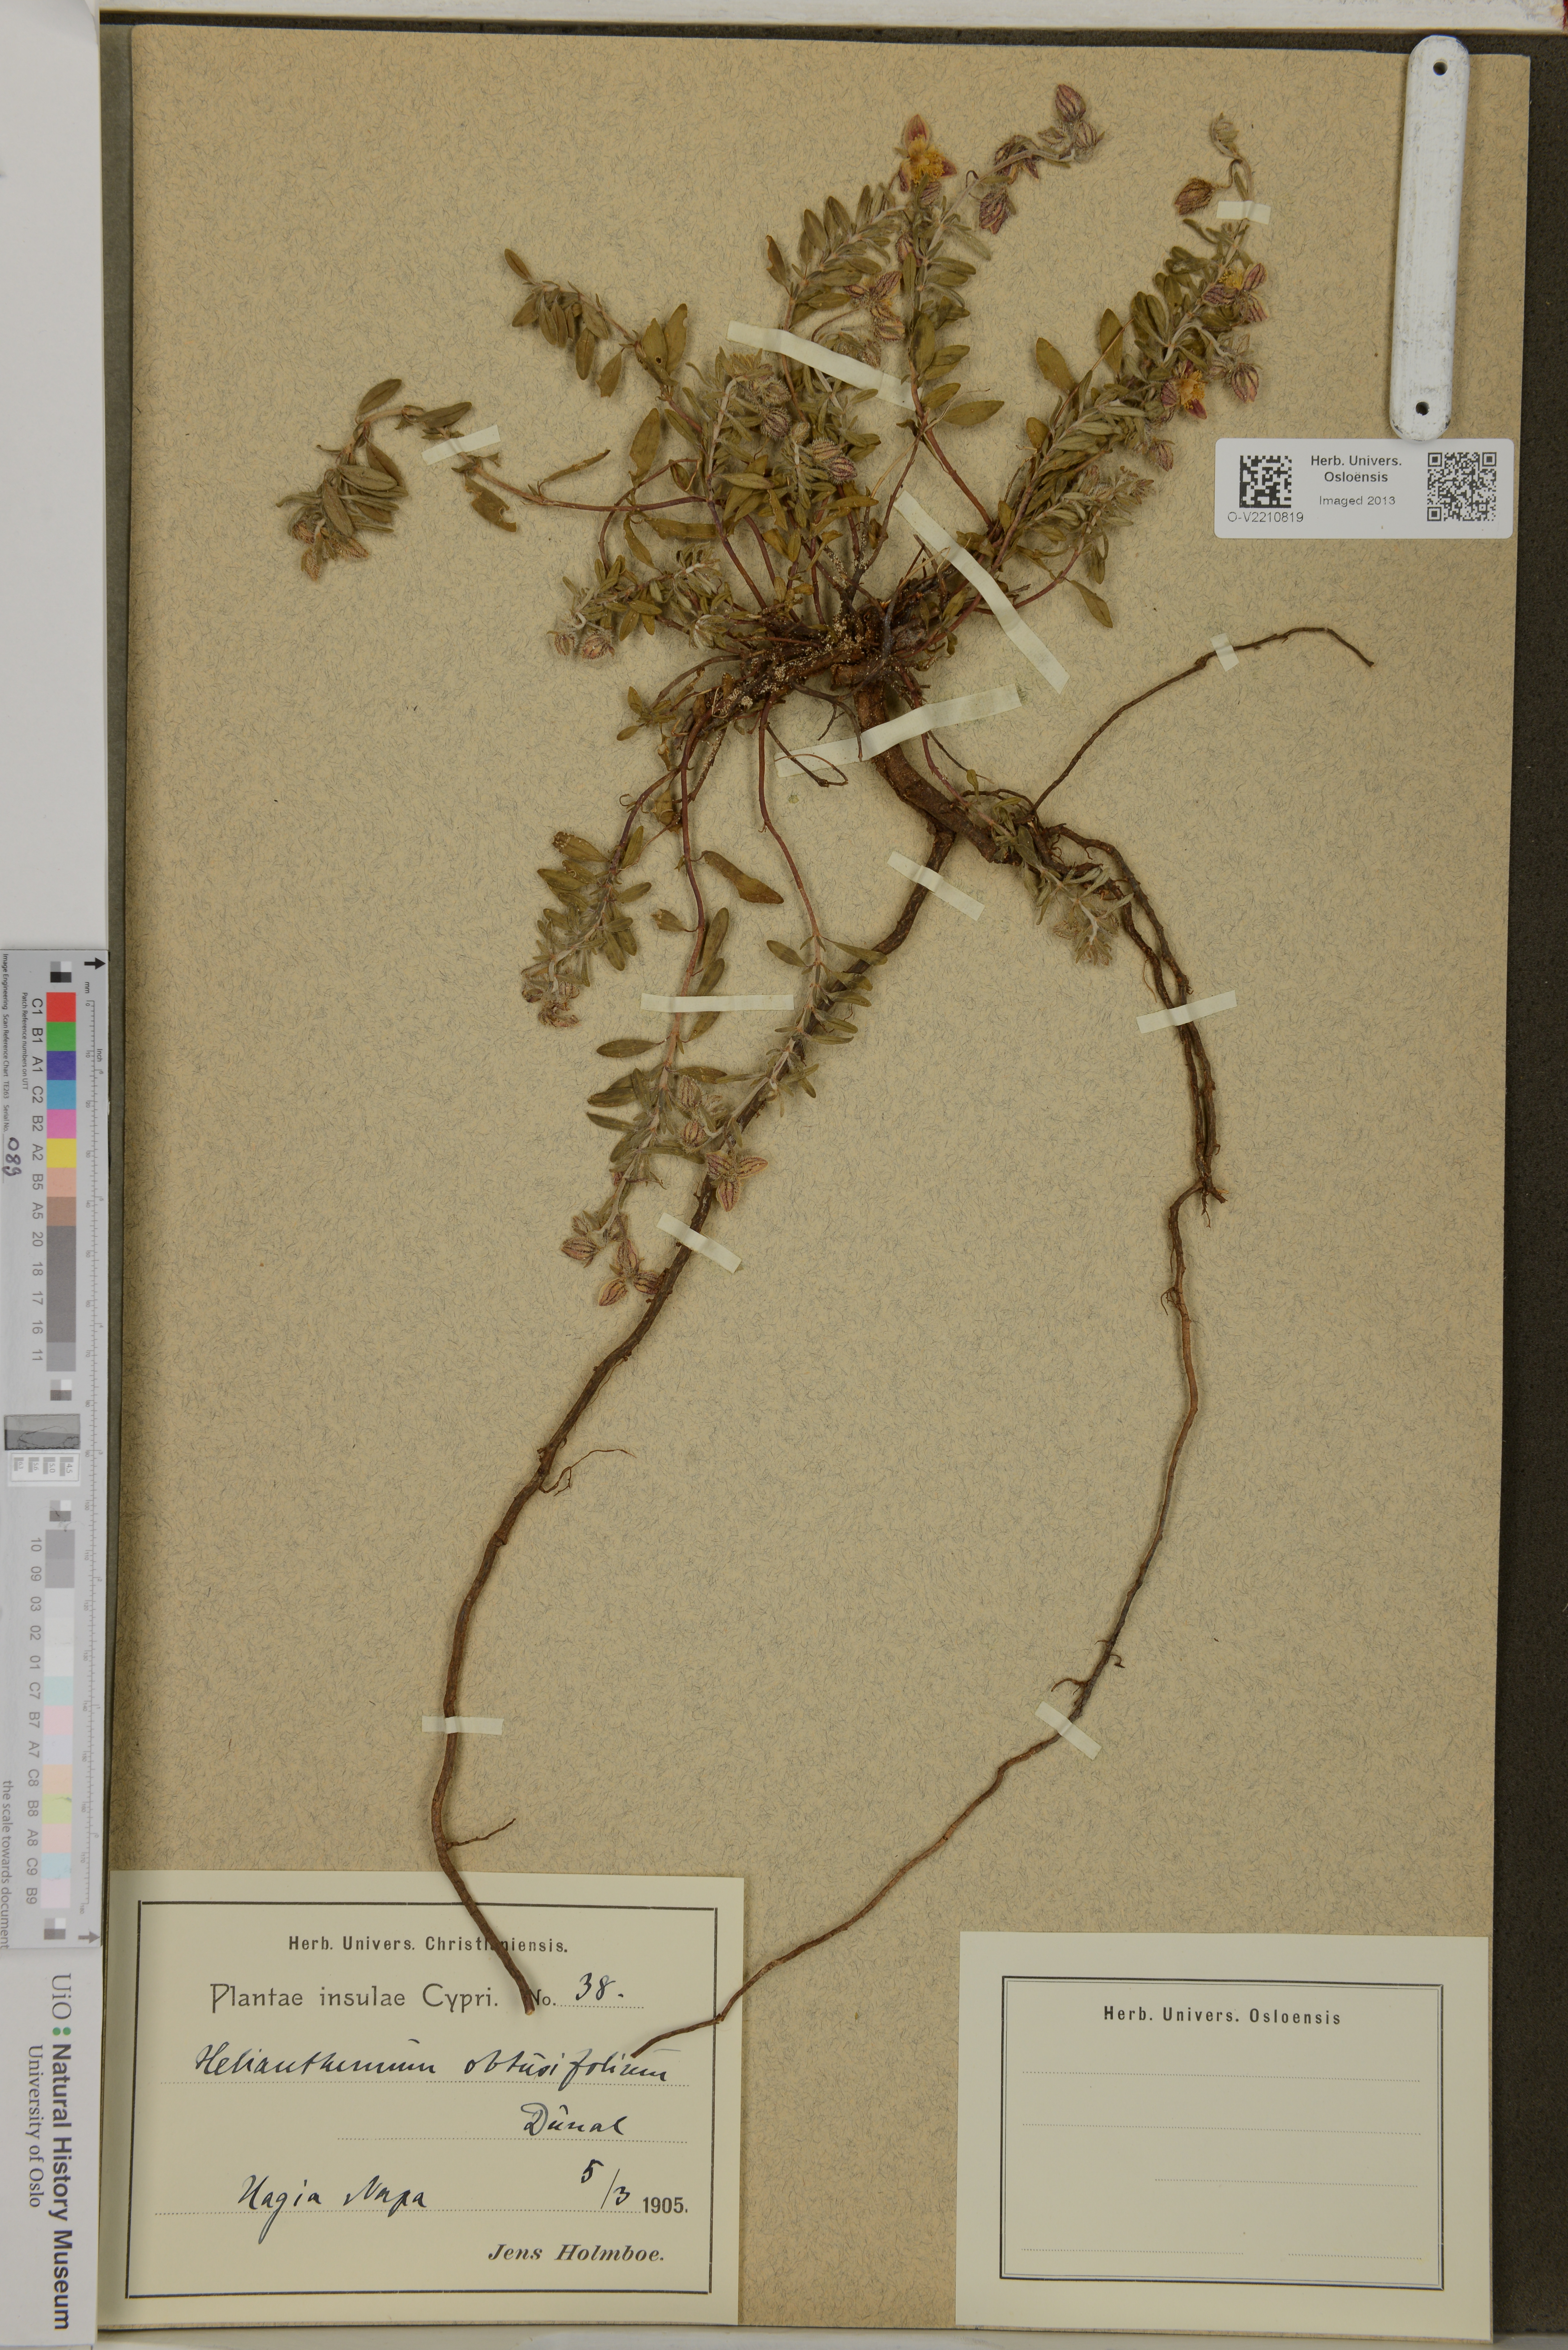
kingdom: Plantae
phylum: Tracheophyta
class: Magnoliopsida
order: Malvales
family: Cistaceae
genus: Helianthemum
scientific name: Helianthemum obtusifolium
